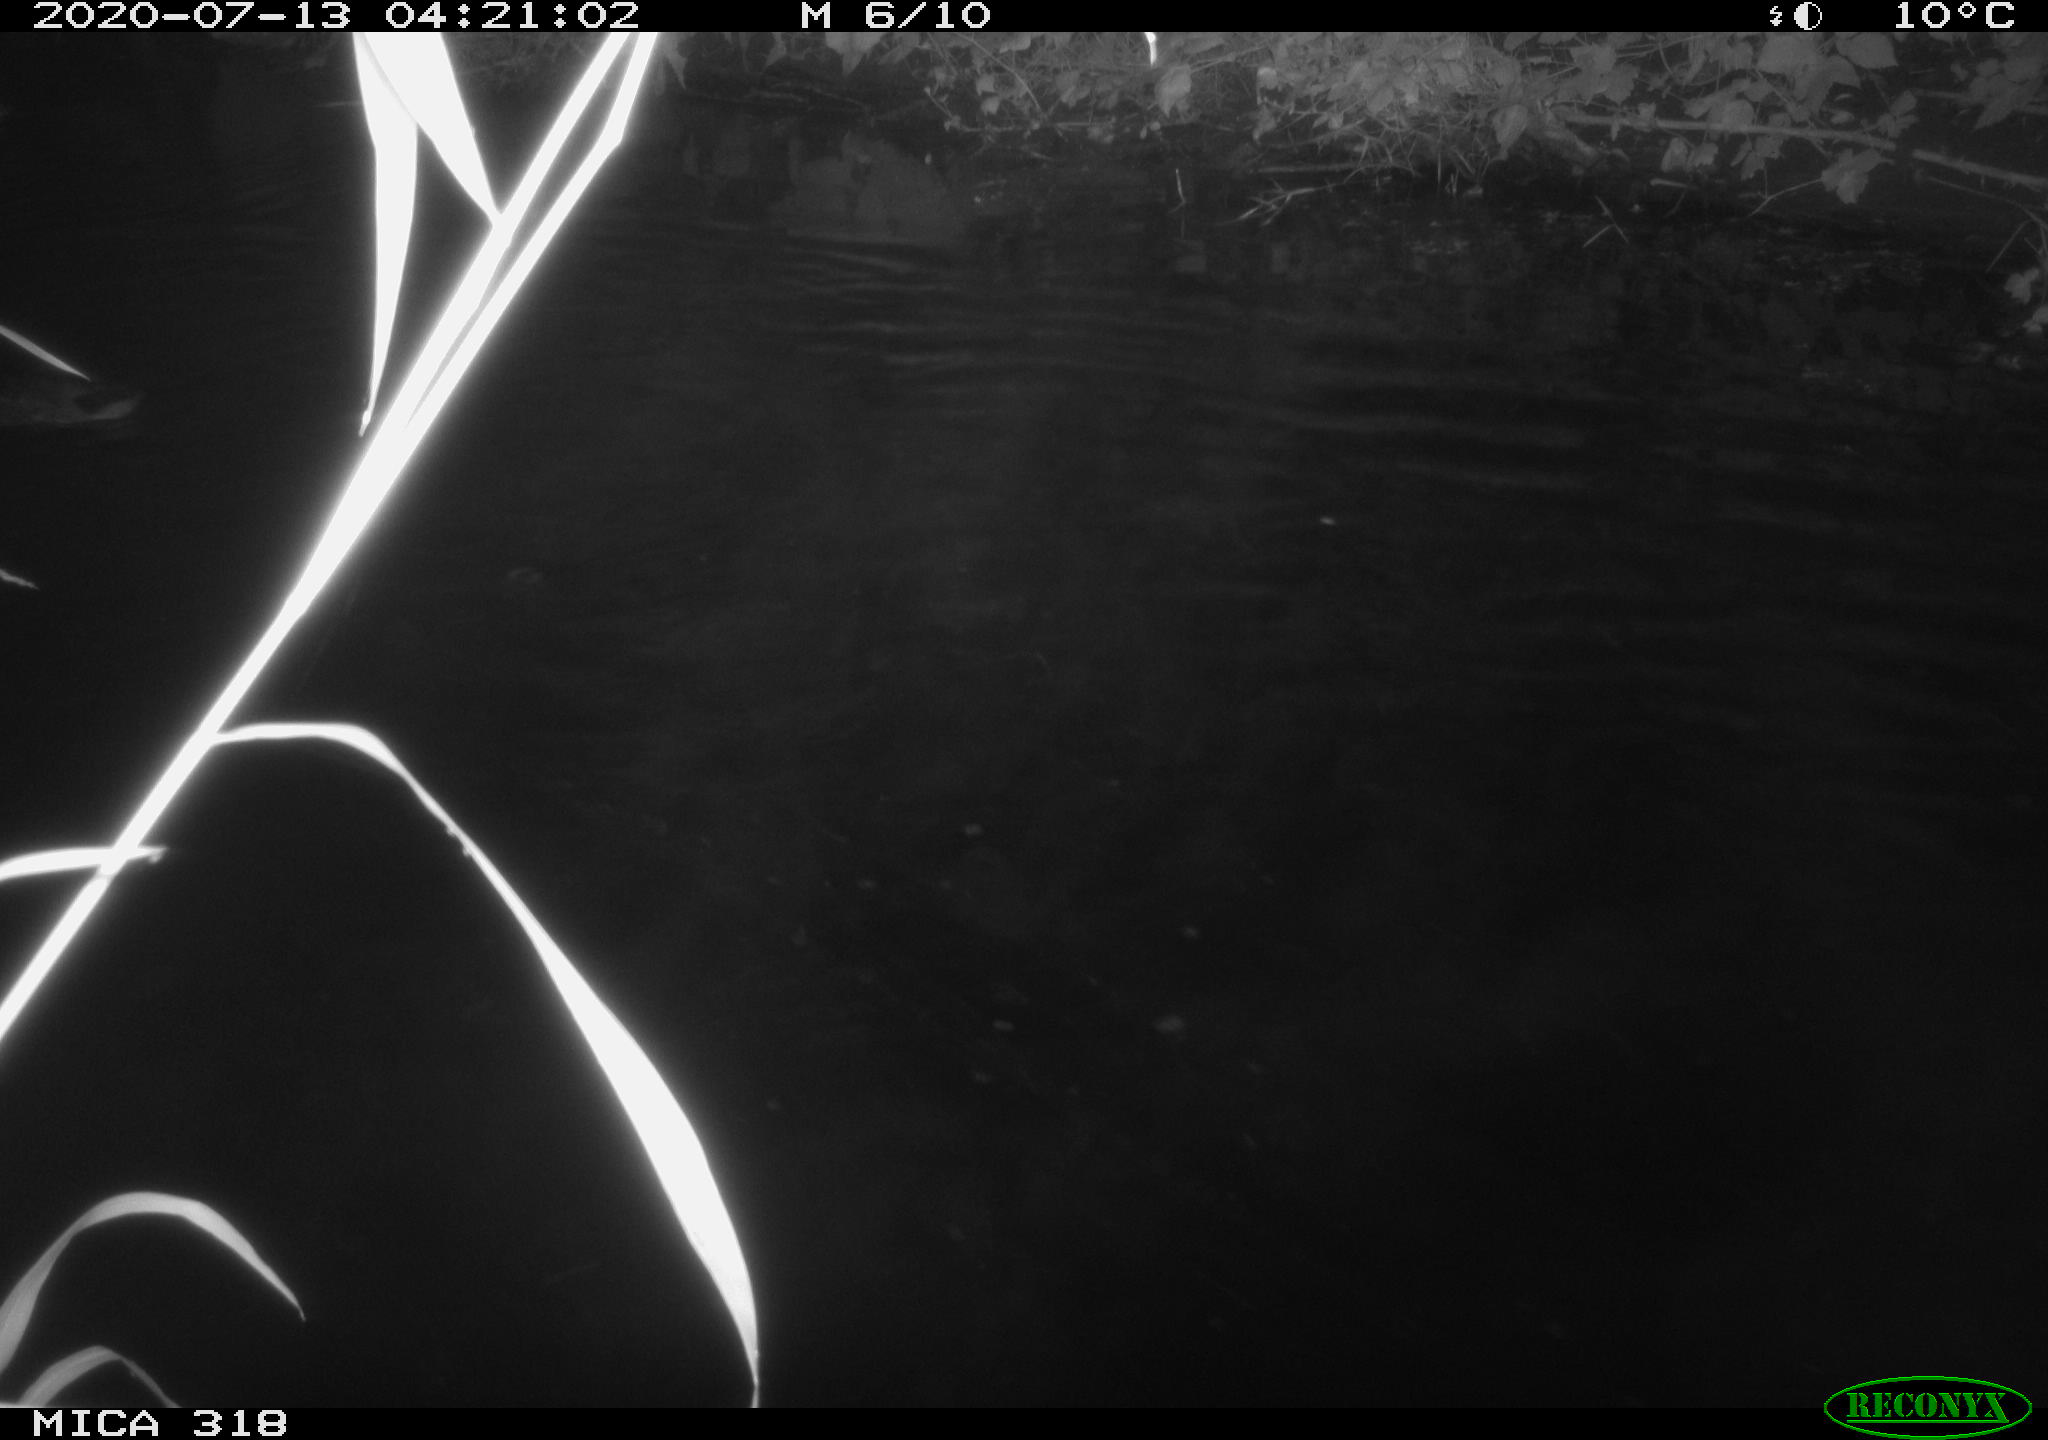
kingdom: Animalia
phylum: Chordata
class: Aves
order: Anseriformes
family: Anatidae
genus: Mareca
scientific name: Mareca strepera
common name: Gadwall
